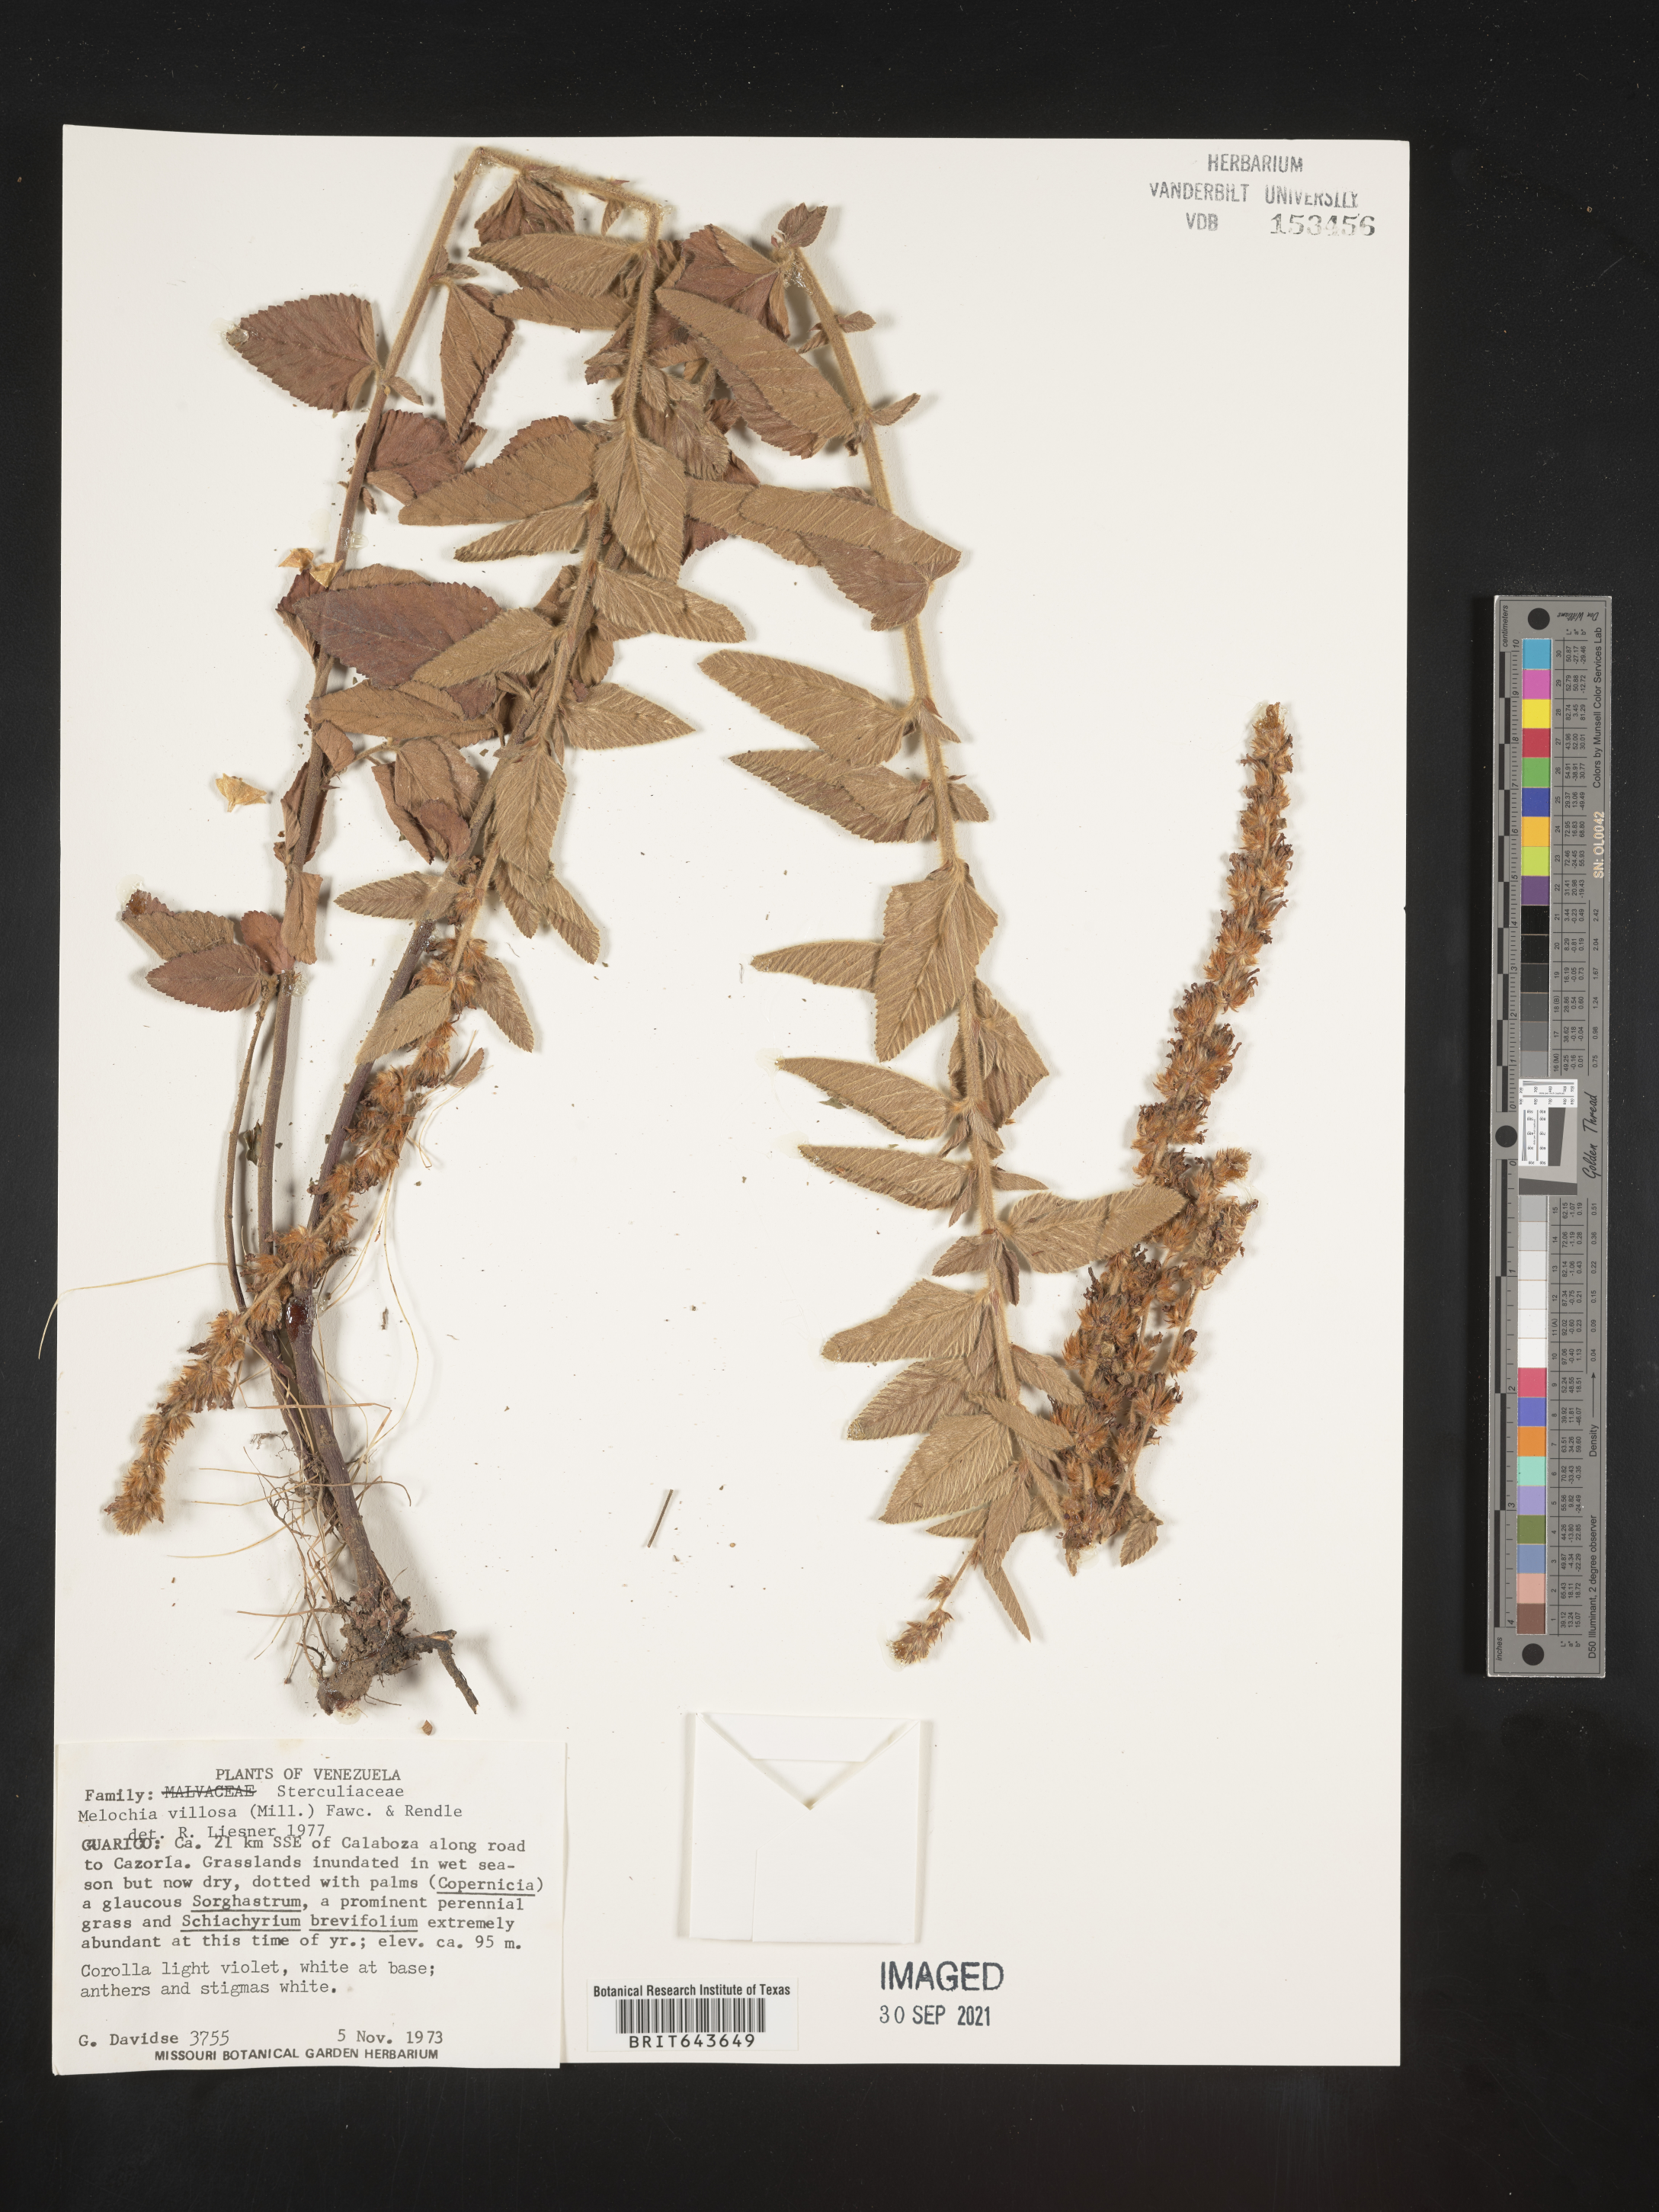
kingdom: Plantae
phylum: Tracheophyta
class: Magnoliopsida
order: Malvales
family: Malvaceae
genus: Melochia
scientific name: Melochia
